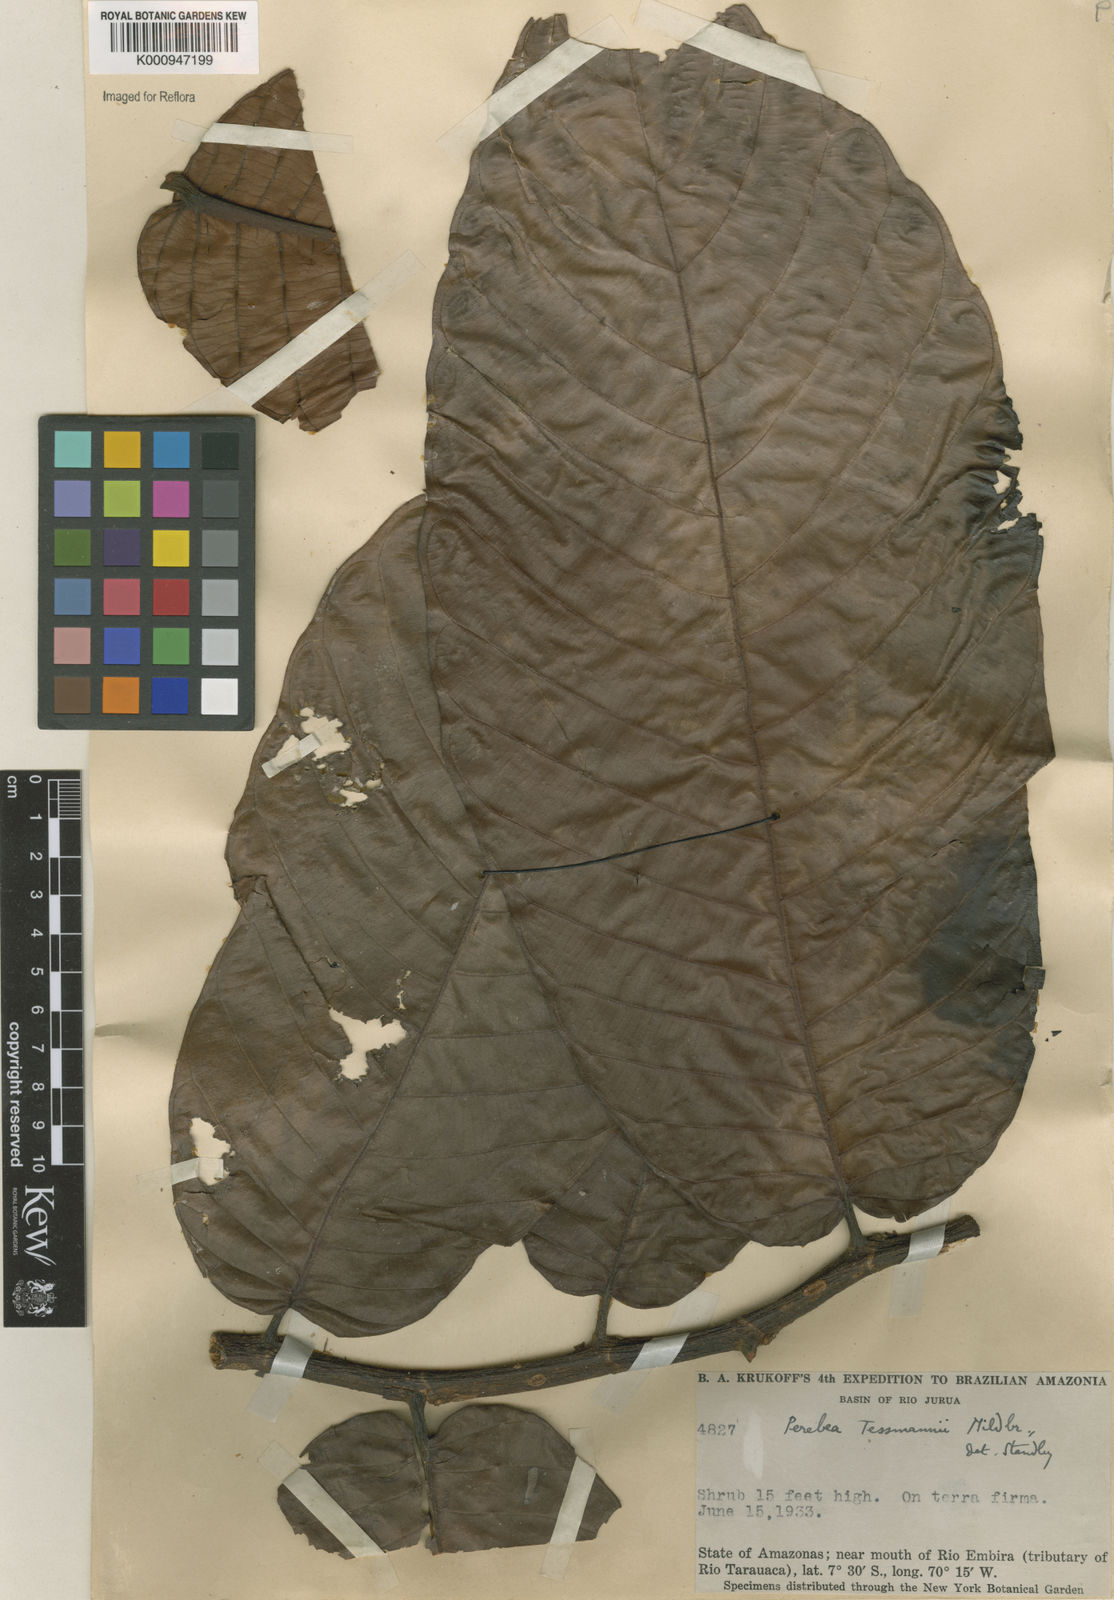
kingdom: Plantae
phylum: Tracheophyta
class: Magnoliopsida
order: Rosales
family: Moraceae
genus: Perebea
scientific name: Perebea tessmannii
